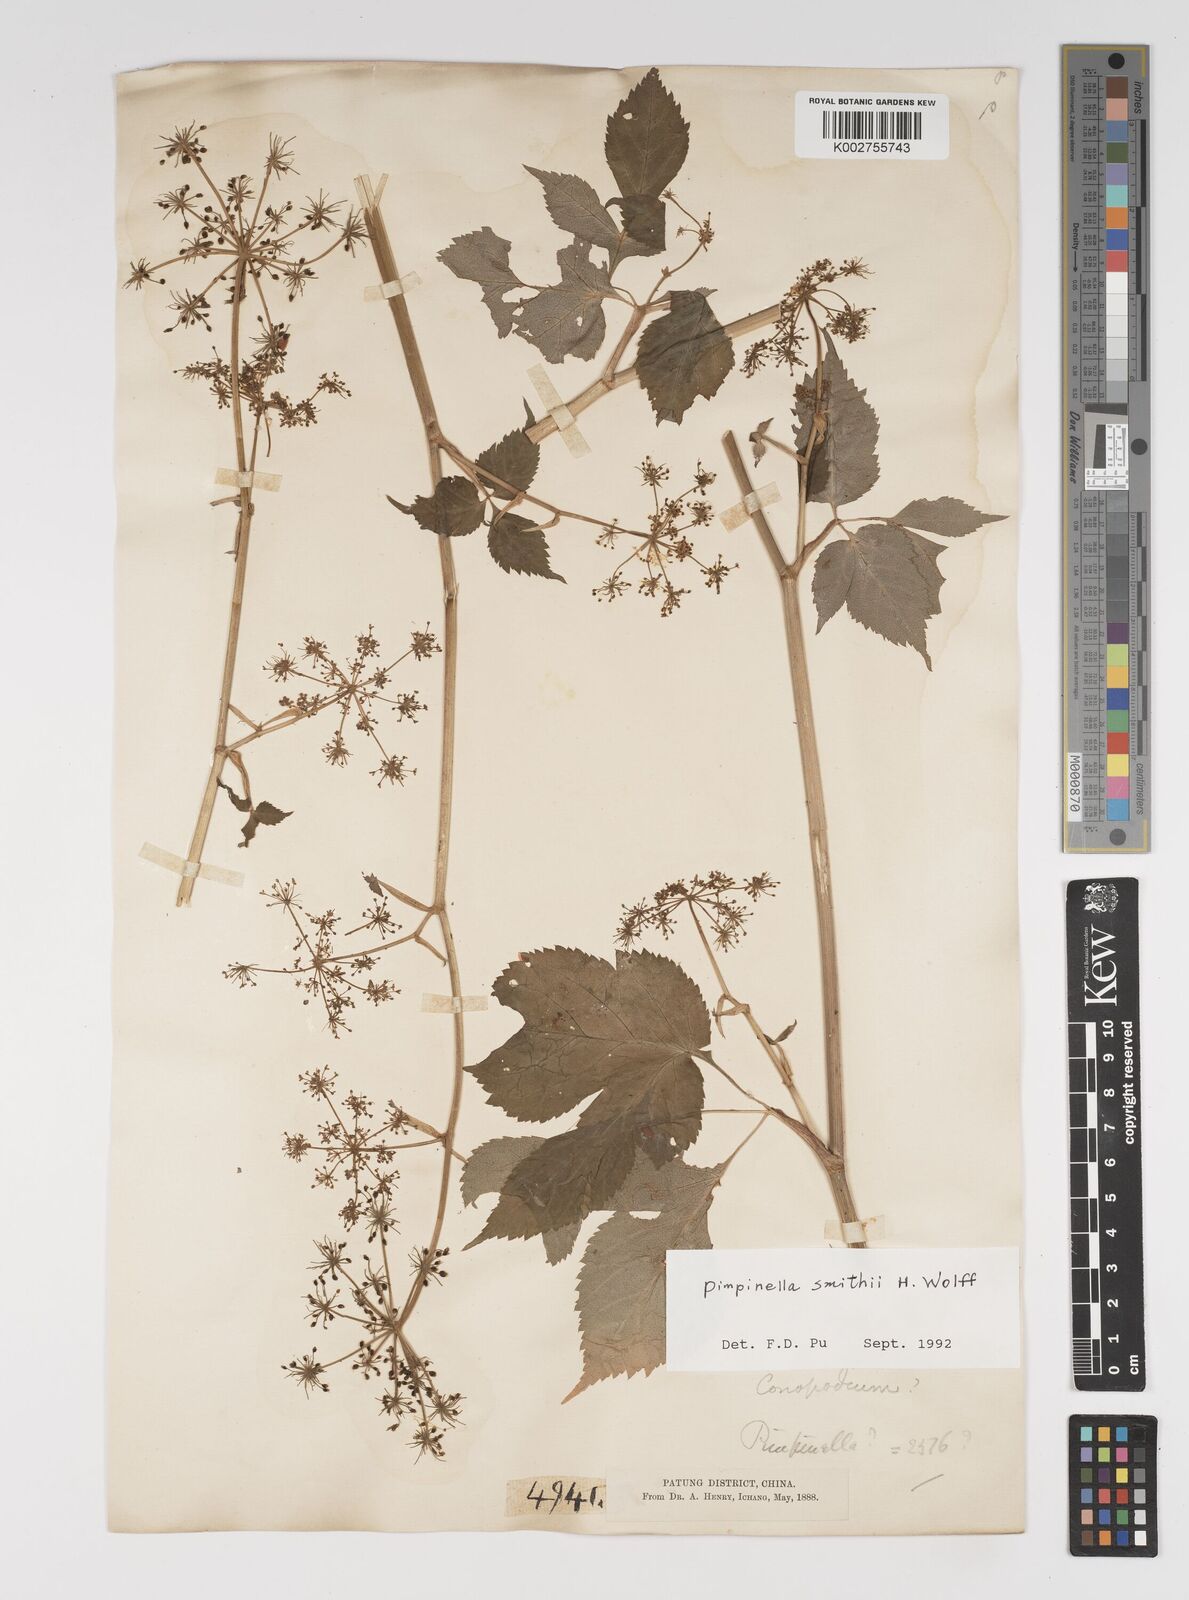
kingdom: Plantae
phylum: Tracheophyta
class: Magnoliopsida
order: Apiales
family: Apiaceae
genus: Pimpinella
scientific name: Pimpinella heliosciadea
